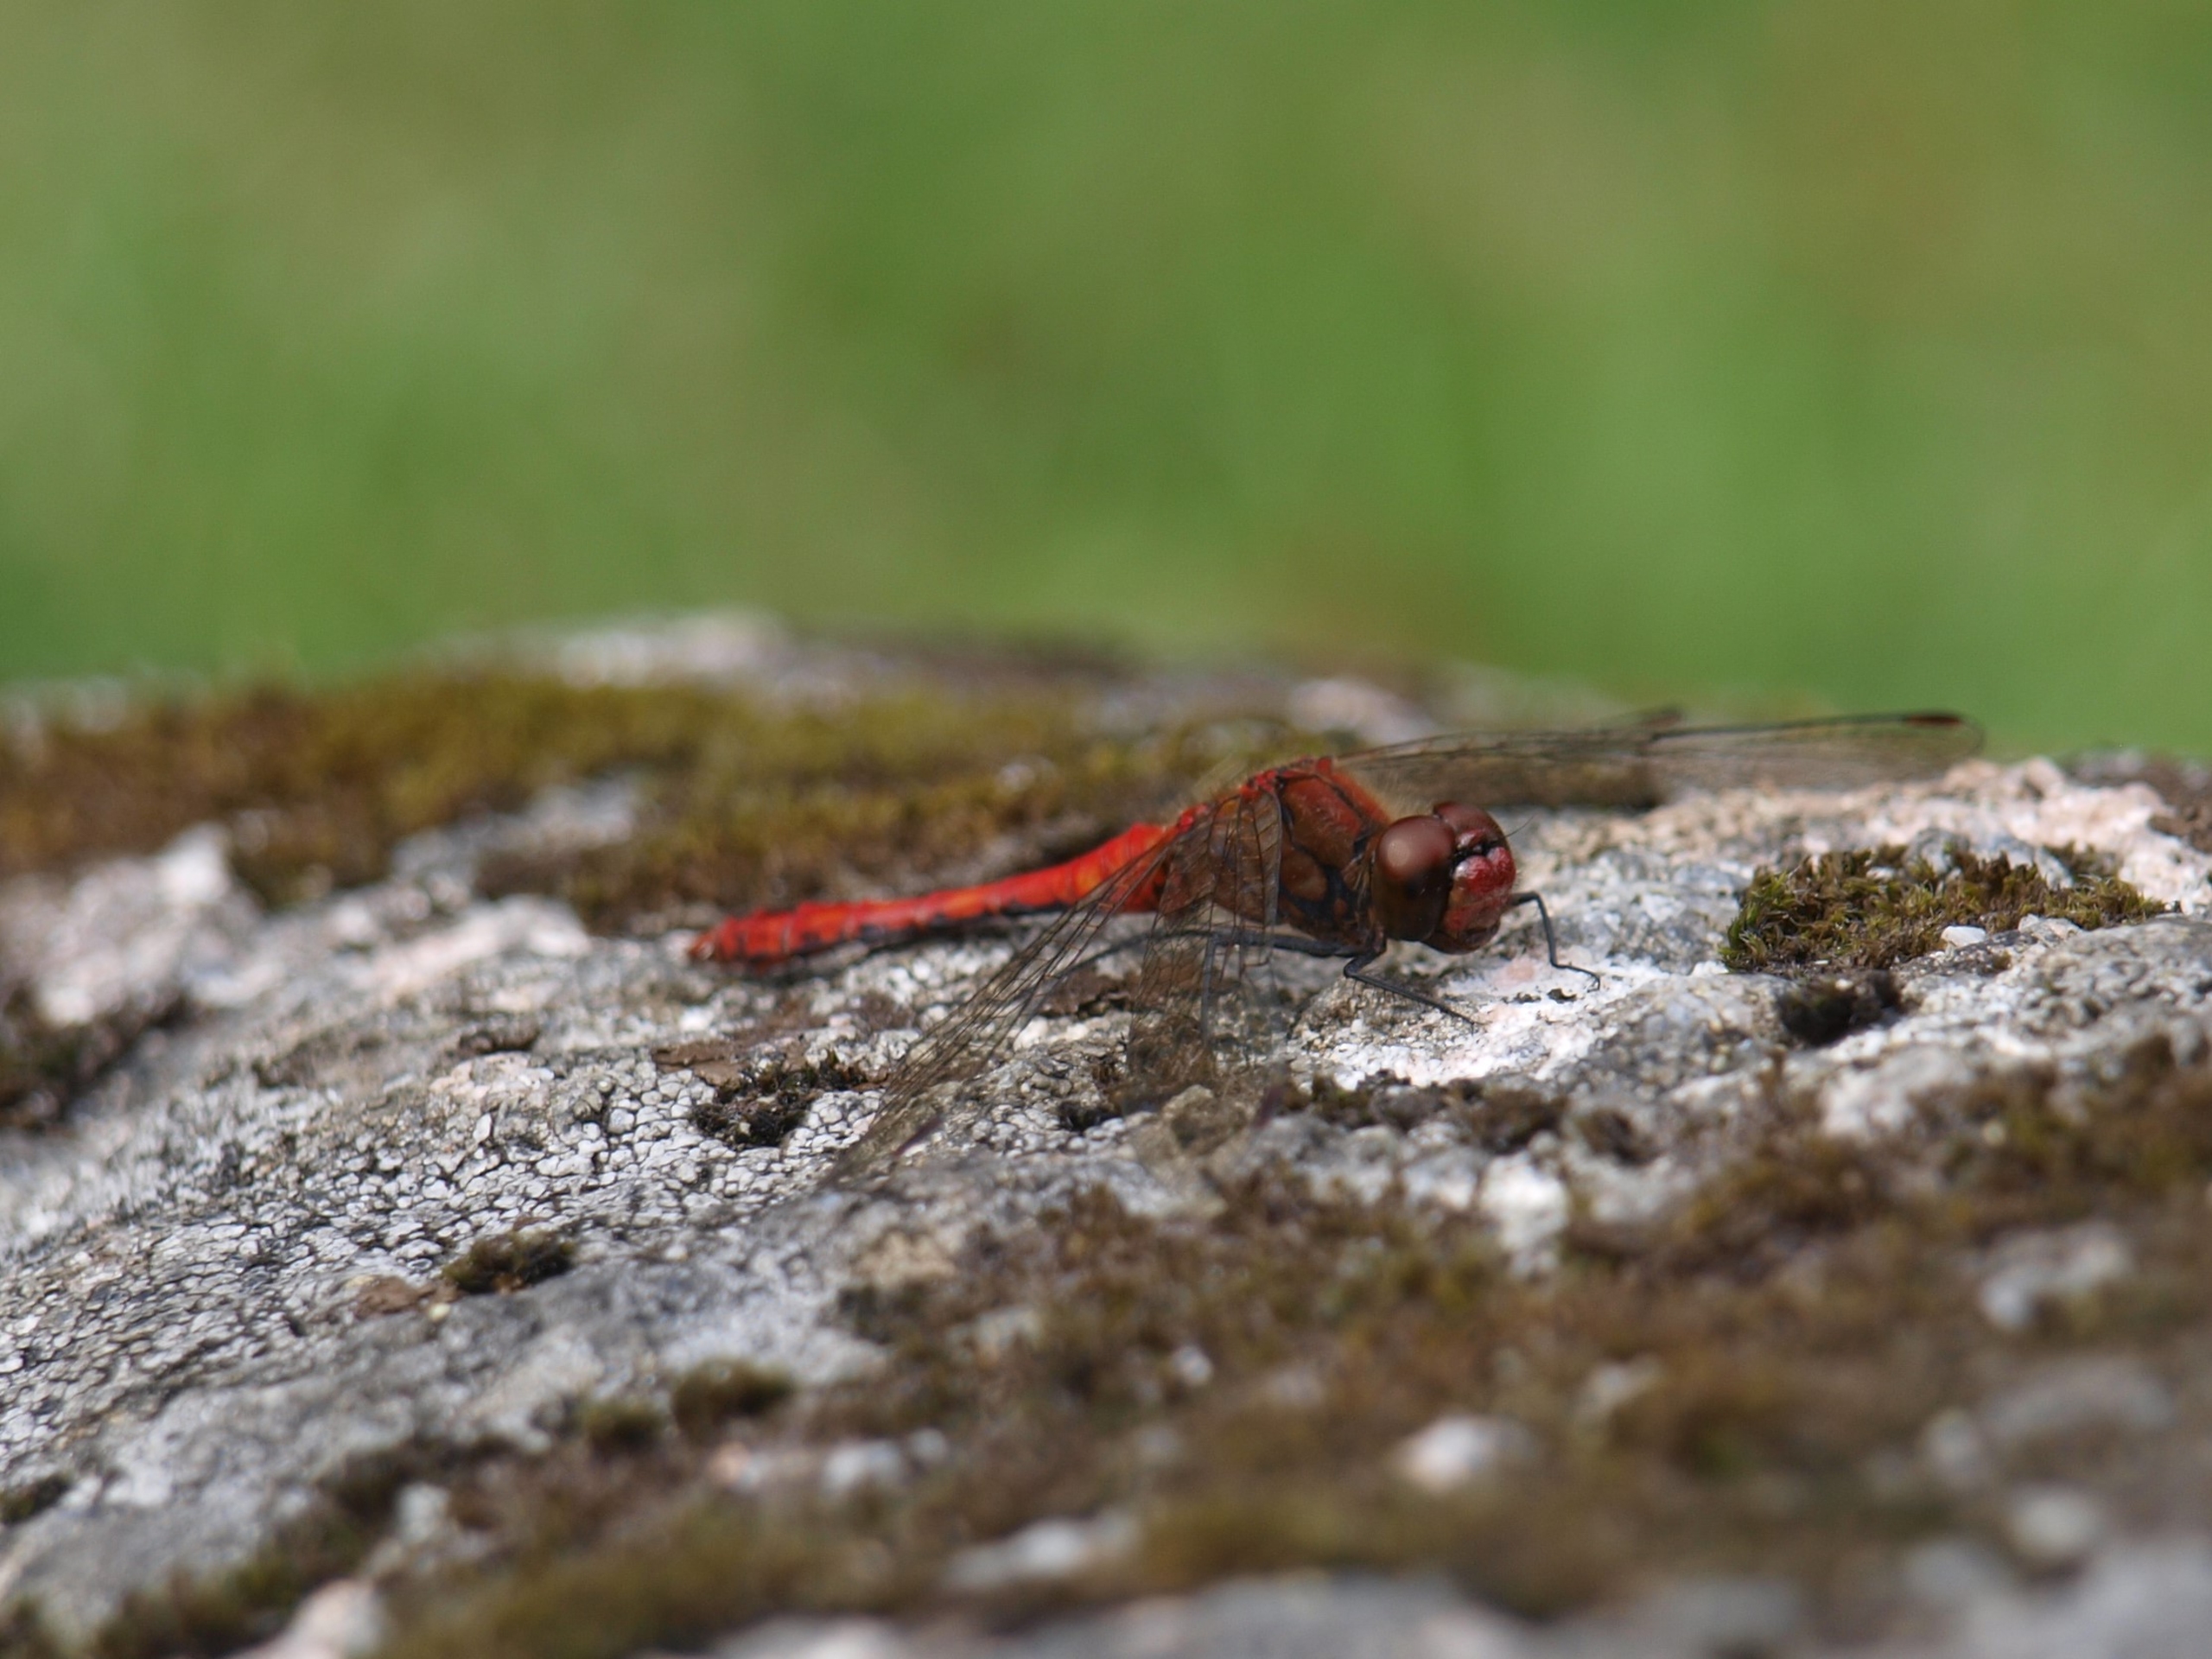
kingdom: Animalia
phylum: Arthropoda
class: Insecta
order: Odonata
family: Libellulidae
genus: Sympetrum
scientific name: Sympetrum sanguineum
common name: Blodrød hedelibel
